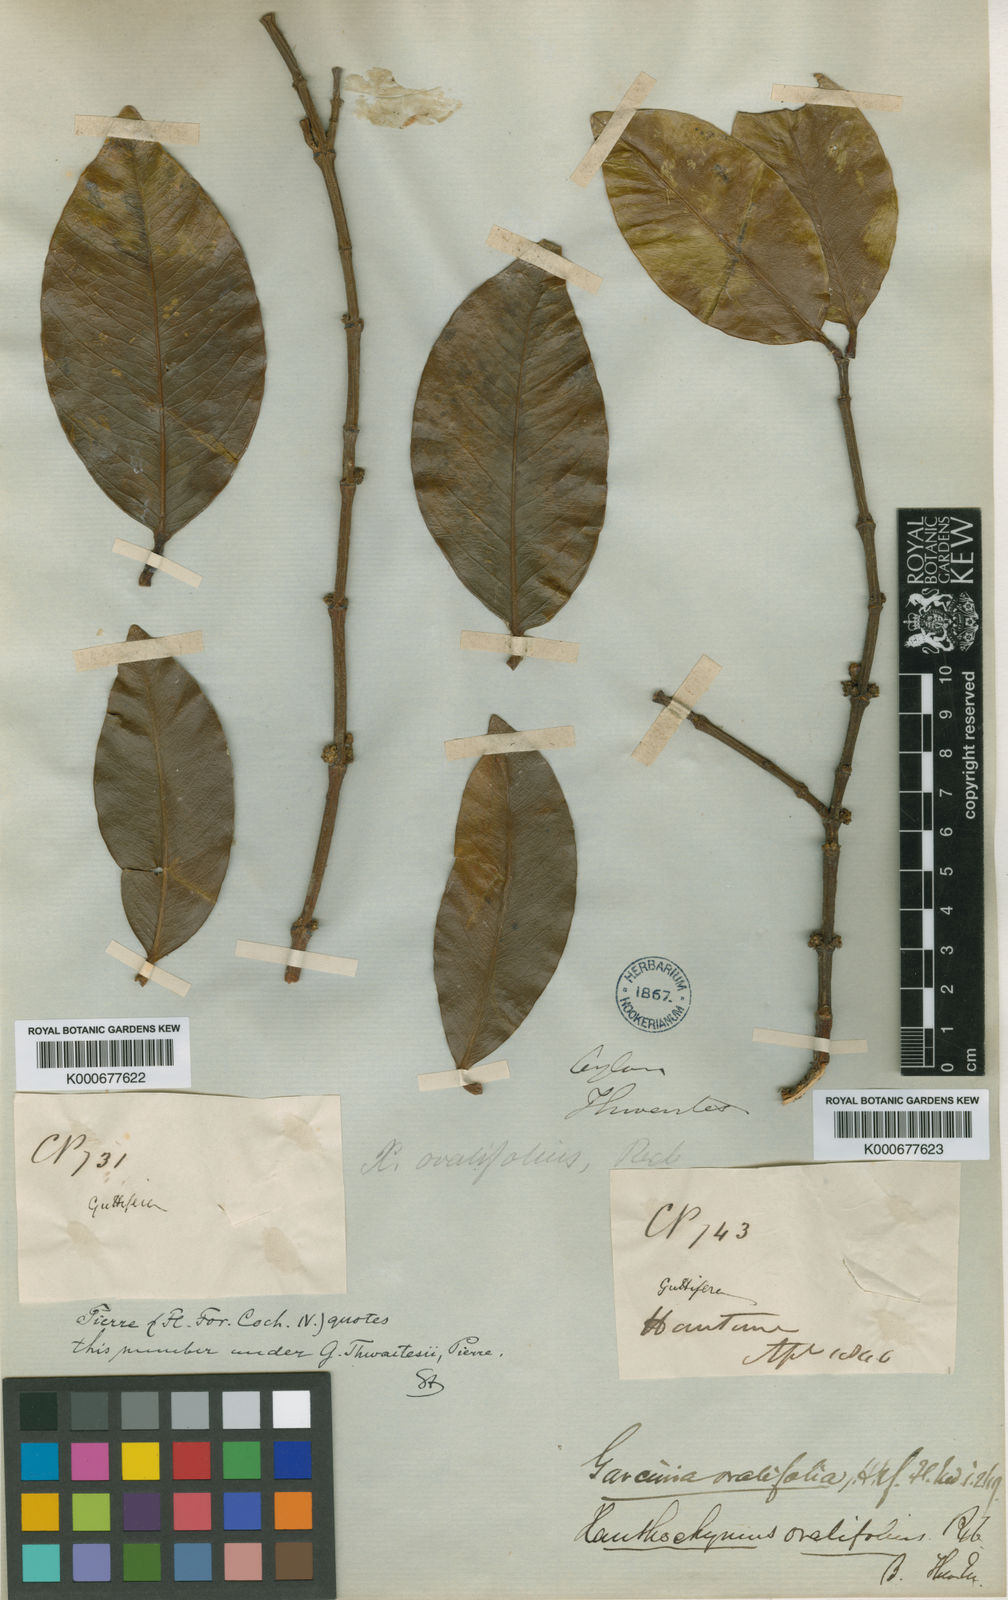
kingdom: Plantae
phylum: Tracheophyta
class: Magnoliopsida
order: Malpighiales
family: Clusiaceae
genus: Garcinia
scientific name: Garcinia thwaitesii
